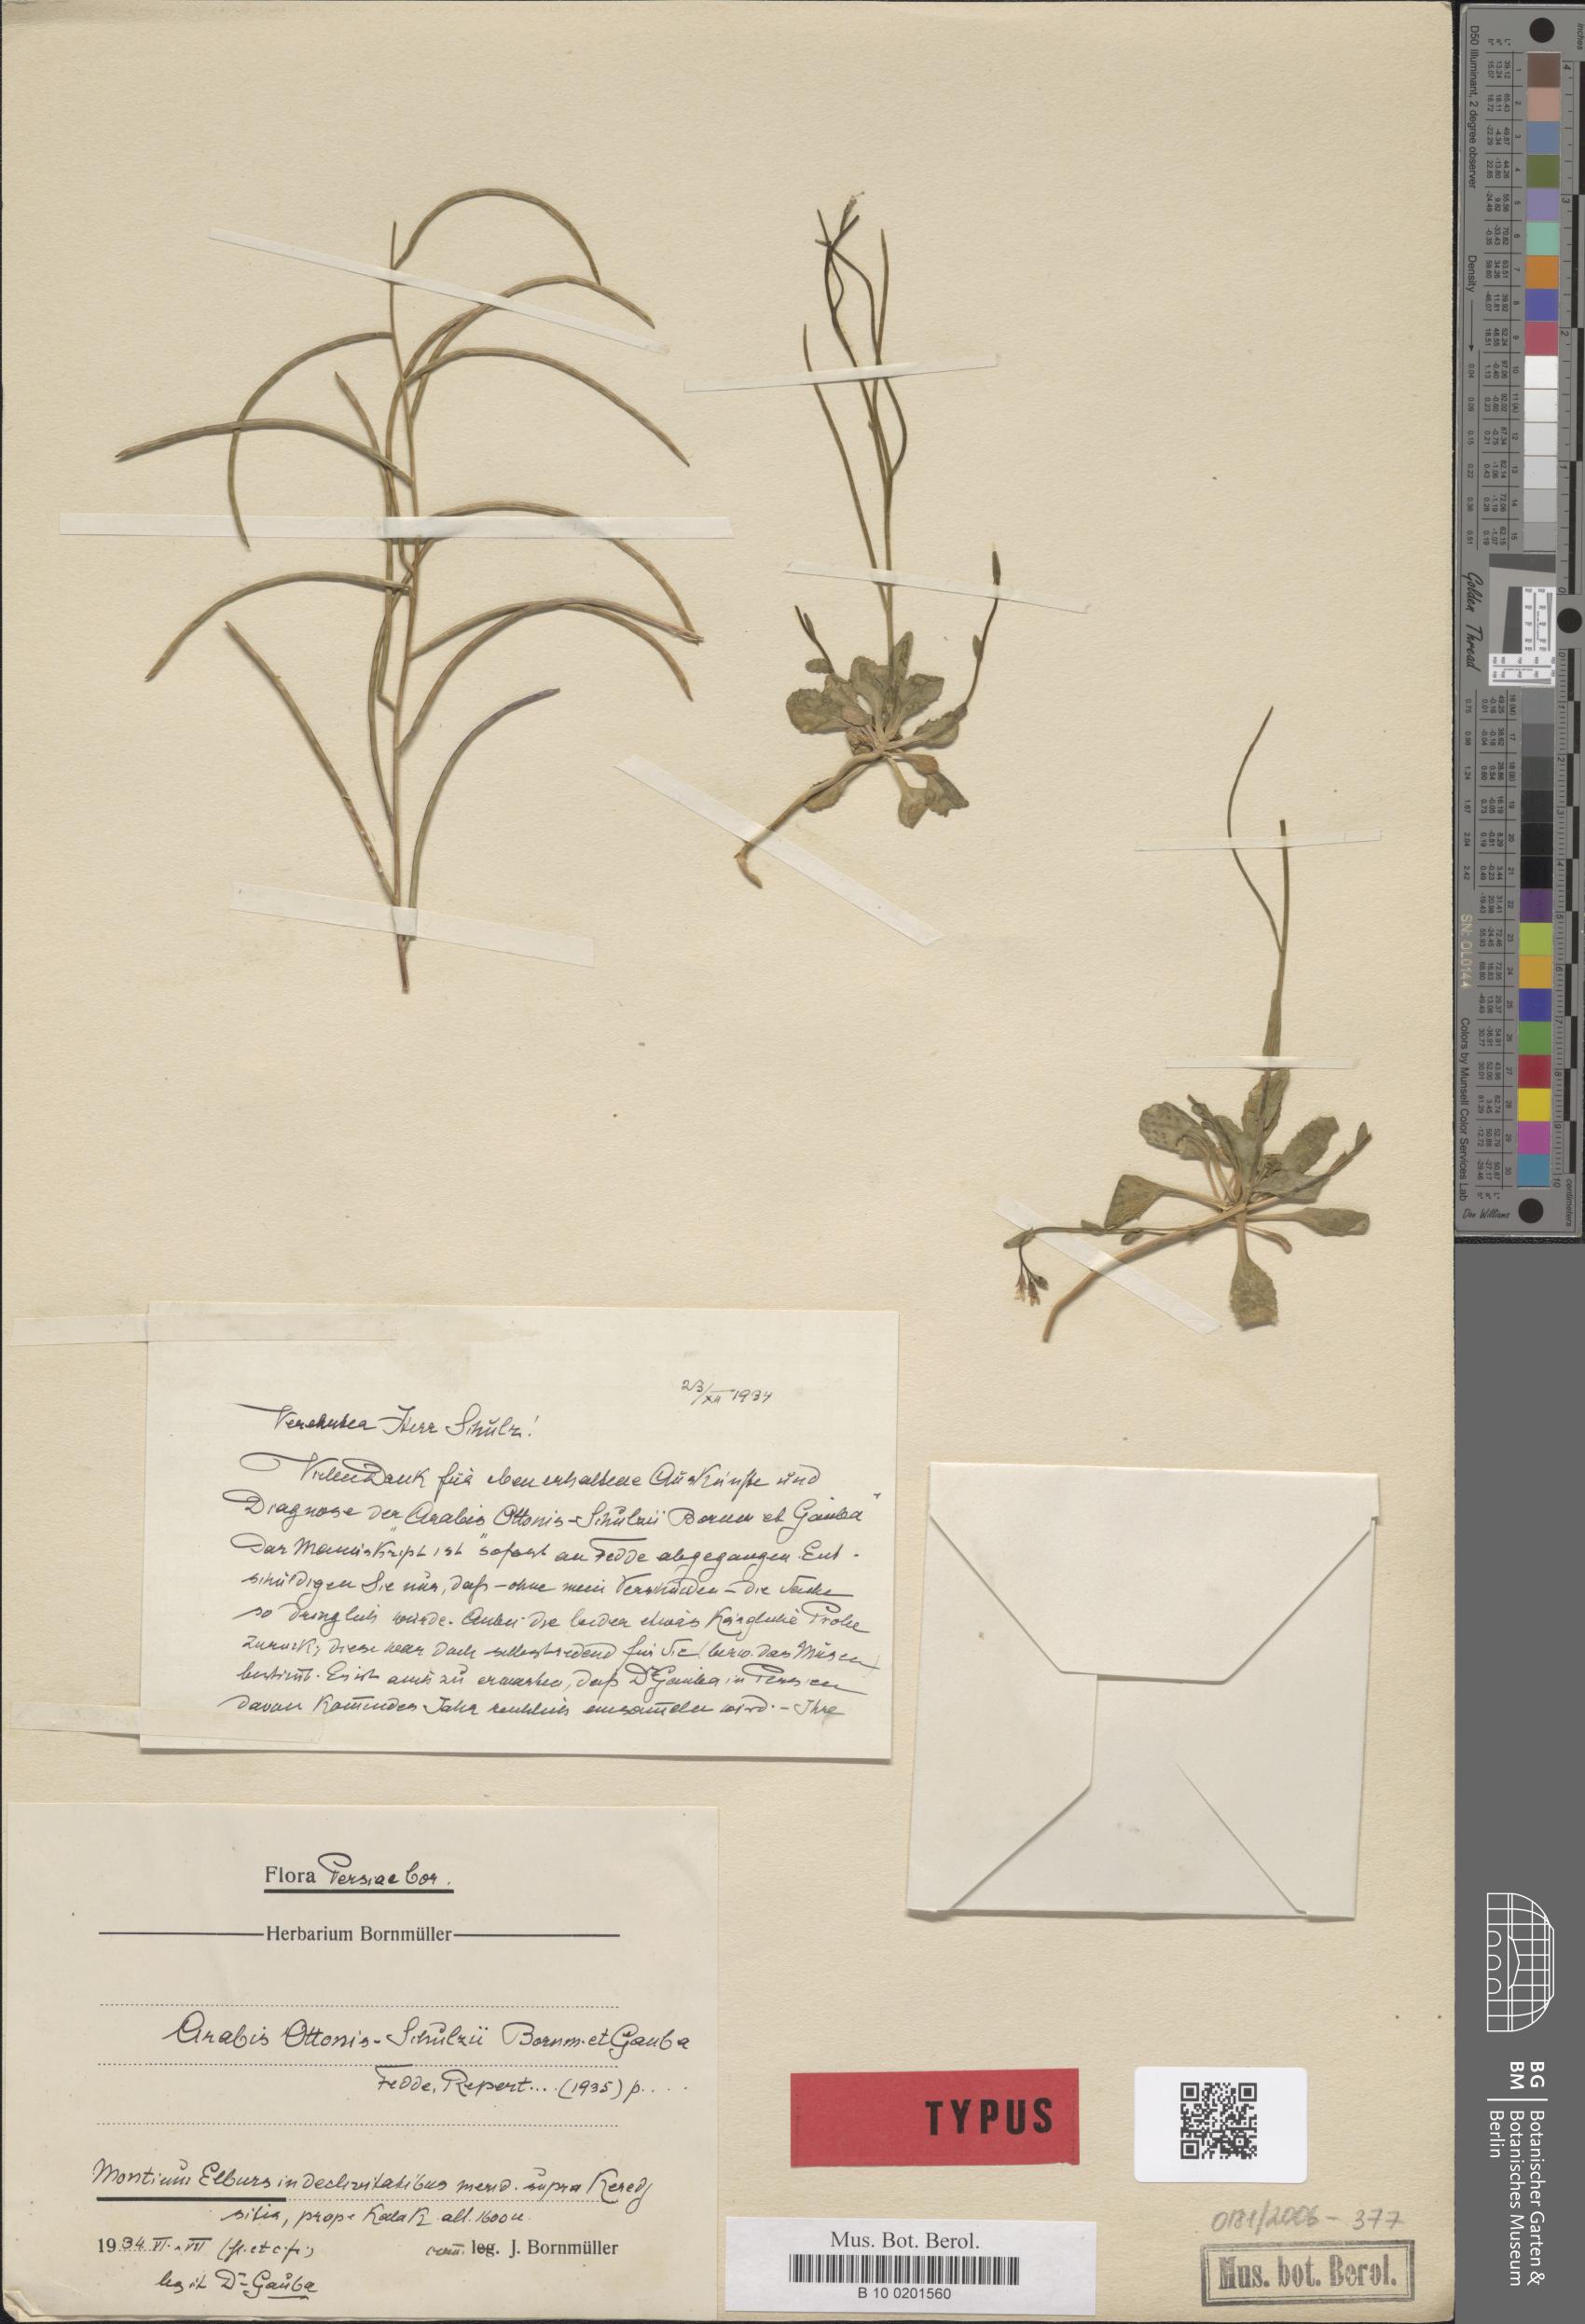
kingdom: Plantae
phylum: Tracheophyta
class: Magnoliopsida
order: Brassicales
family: Brassicaceae
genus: Arabis
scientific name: Arabis ottonis-schulzii
